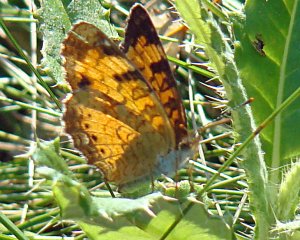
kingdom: Animalia
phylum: Arthropoda
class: Insecta
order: Lepidoptera
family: Nymphalidae
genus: Phyciodes
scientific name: Phyciodes tharos
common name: Northern Crescent
